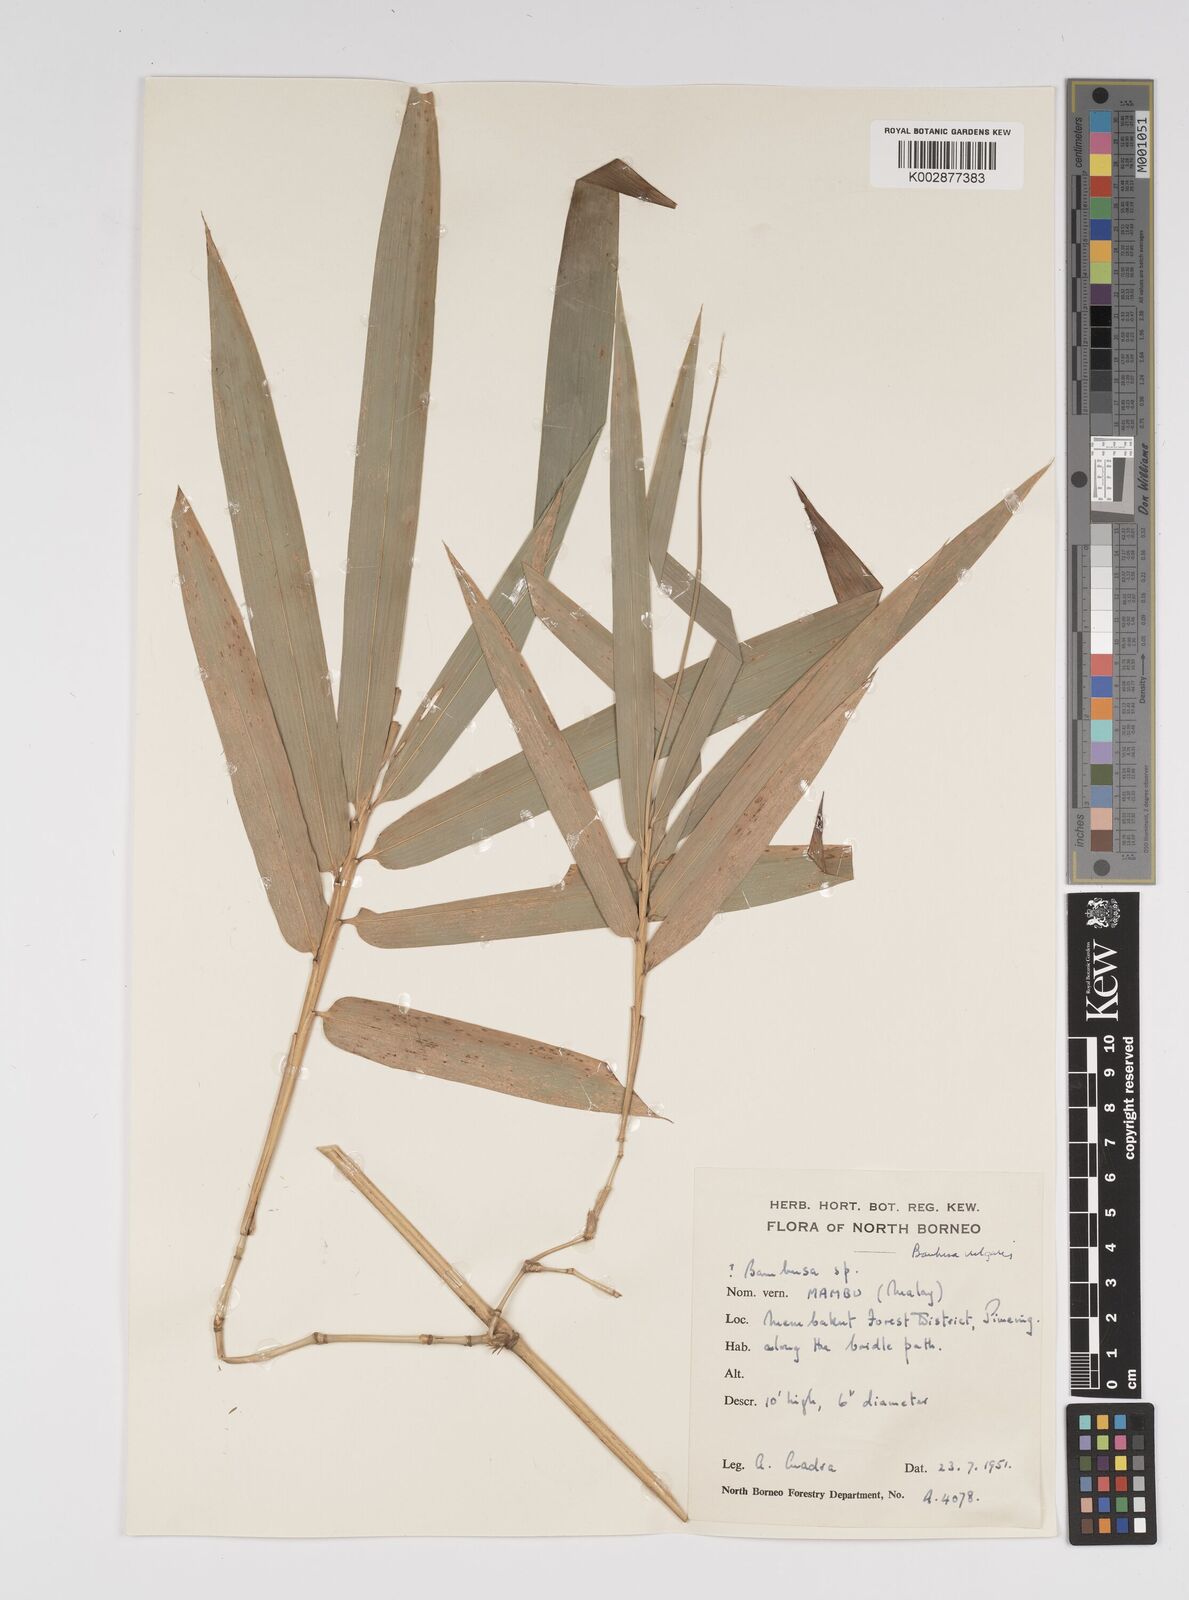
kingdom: Plantae
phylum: Tracheophyta
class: Liliopsida
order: Poales
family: Poaceae
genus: Bambusa
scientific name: Bambusa
